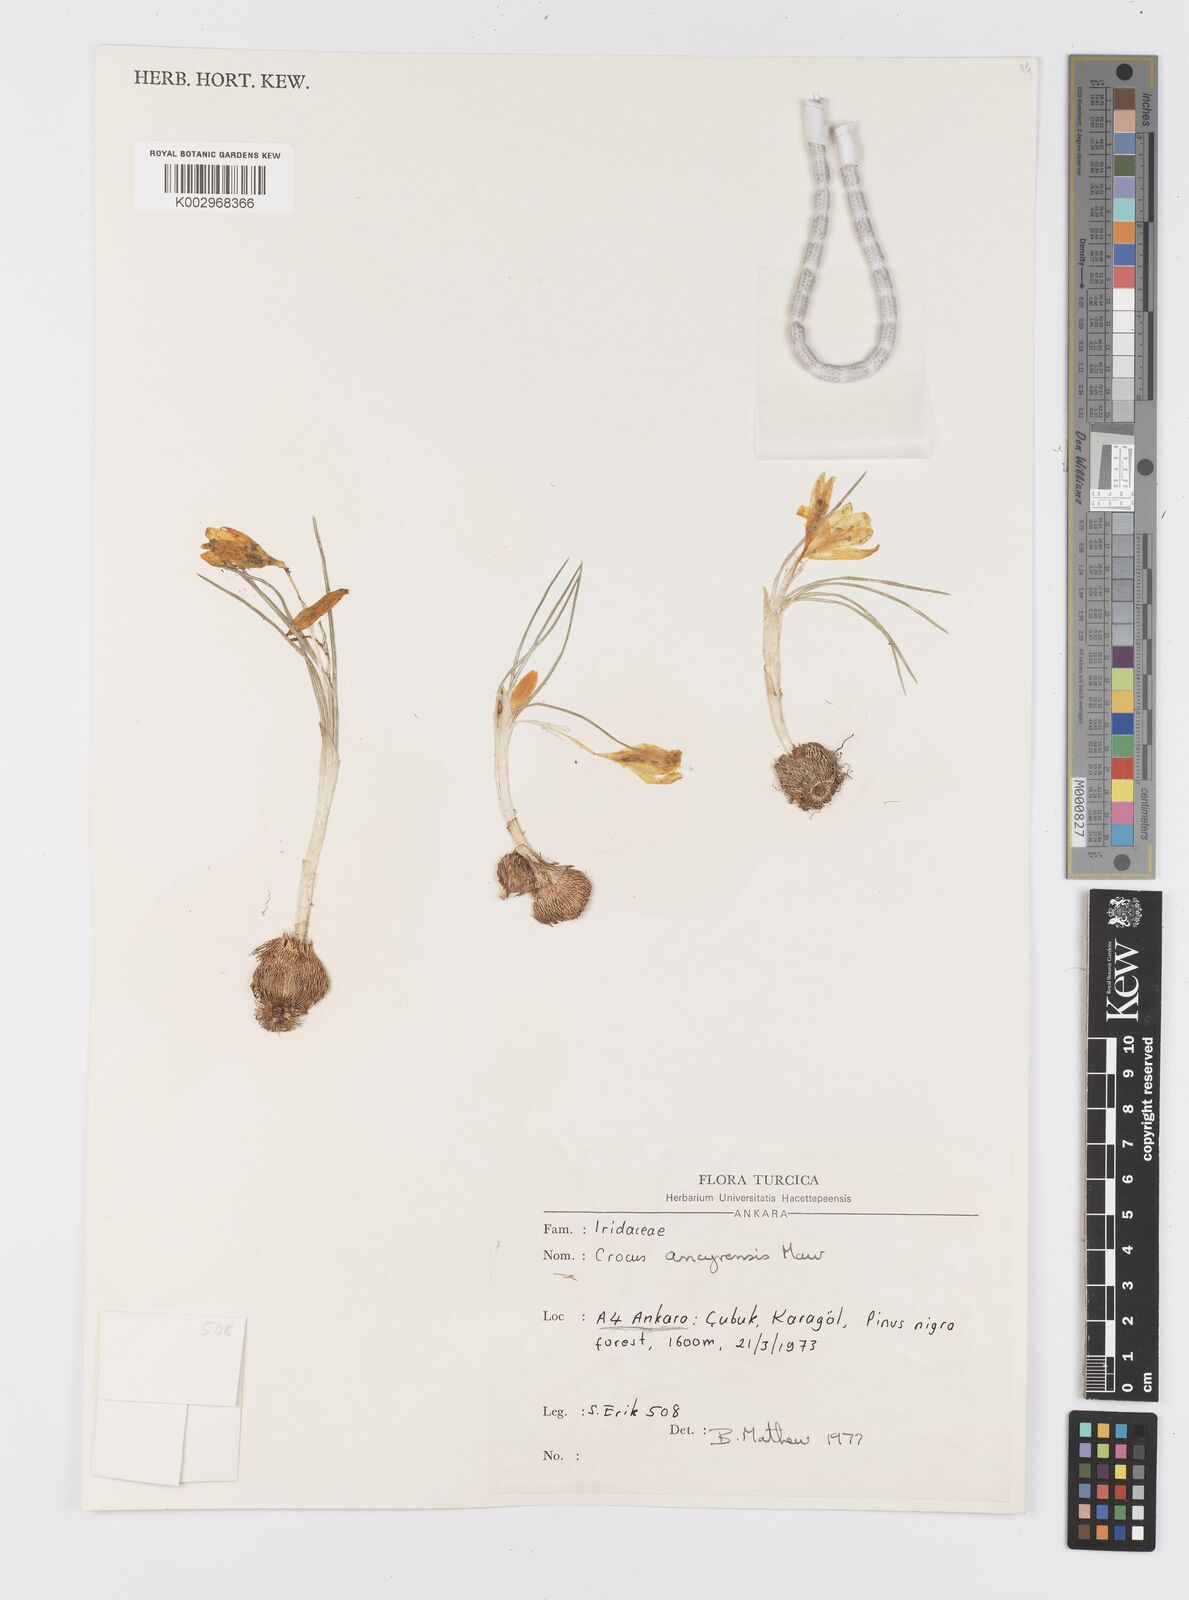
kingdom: Plantae
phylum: Tracheophyta
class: Liliopsida
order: Asparagales
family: Iridaceae
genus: Crocus
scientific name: Crocus ancyrensis
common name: Ankara crocus
